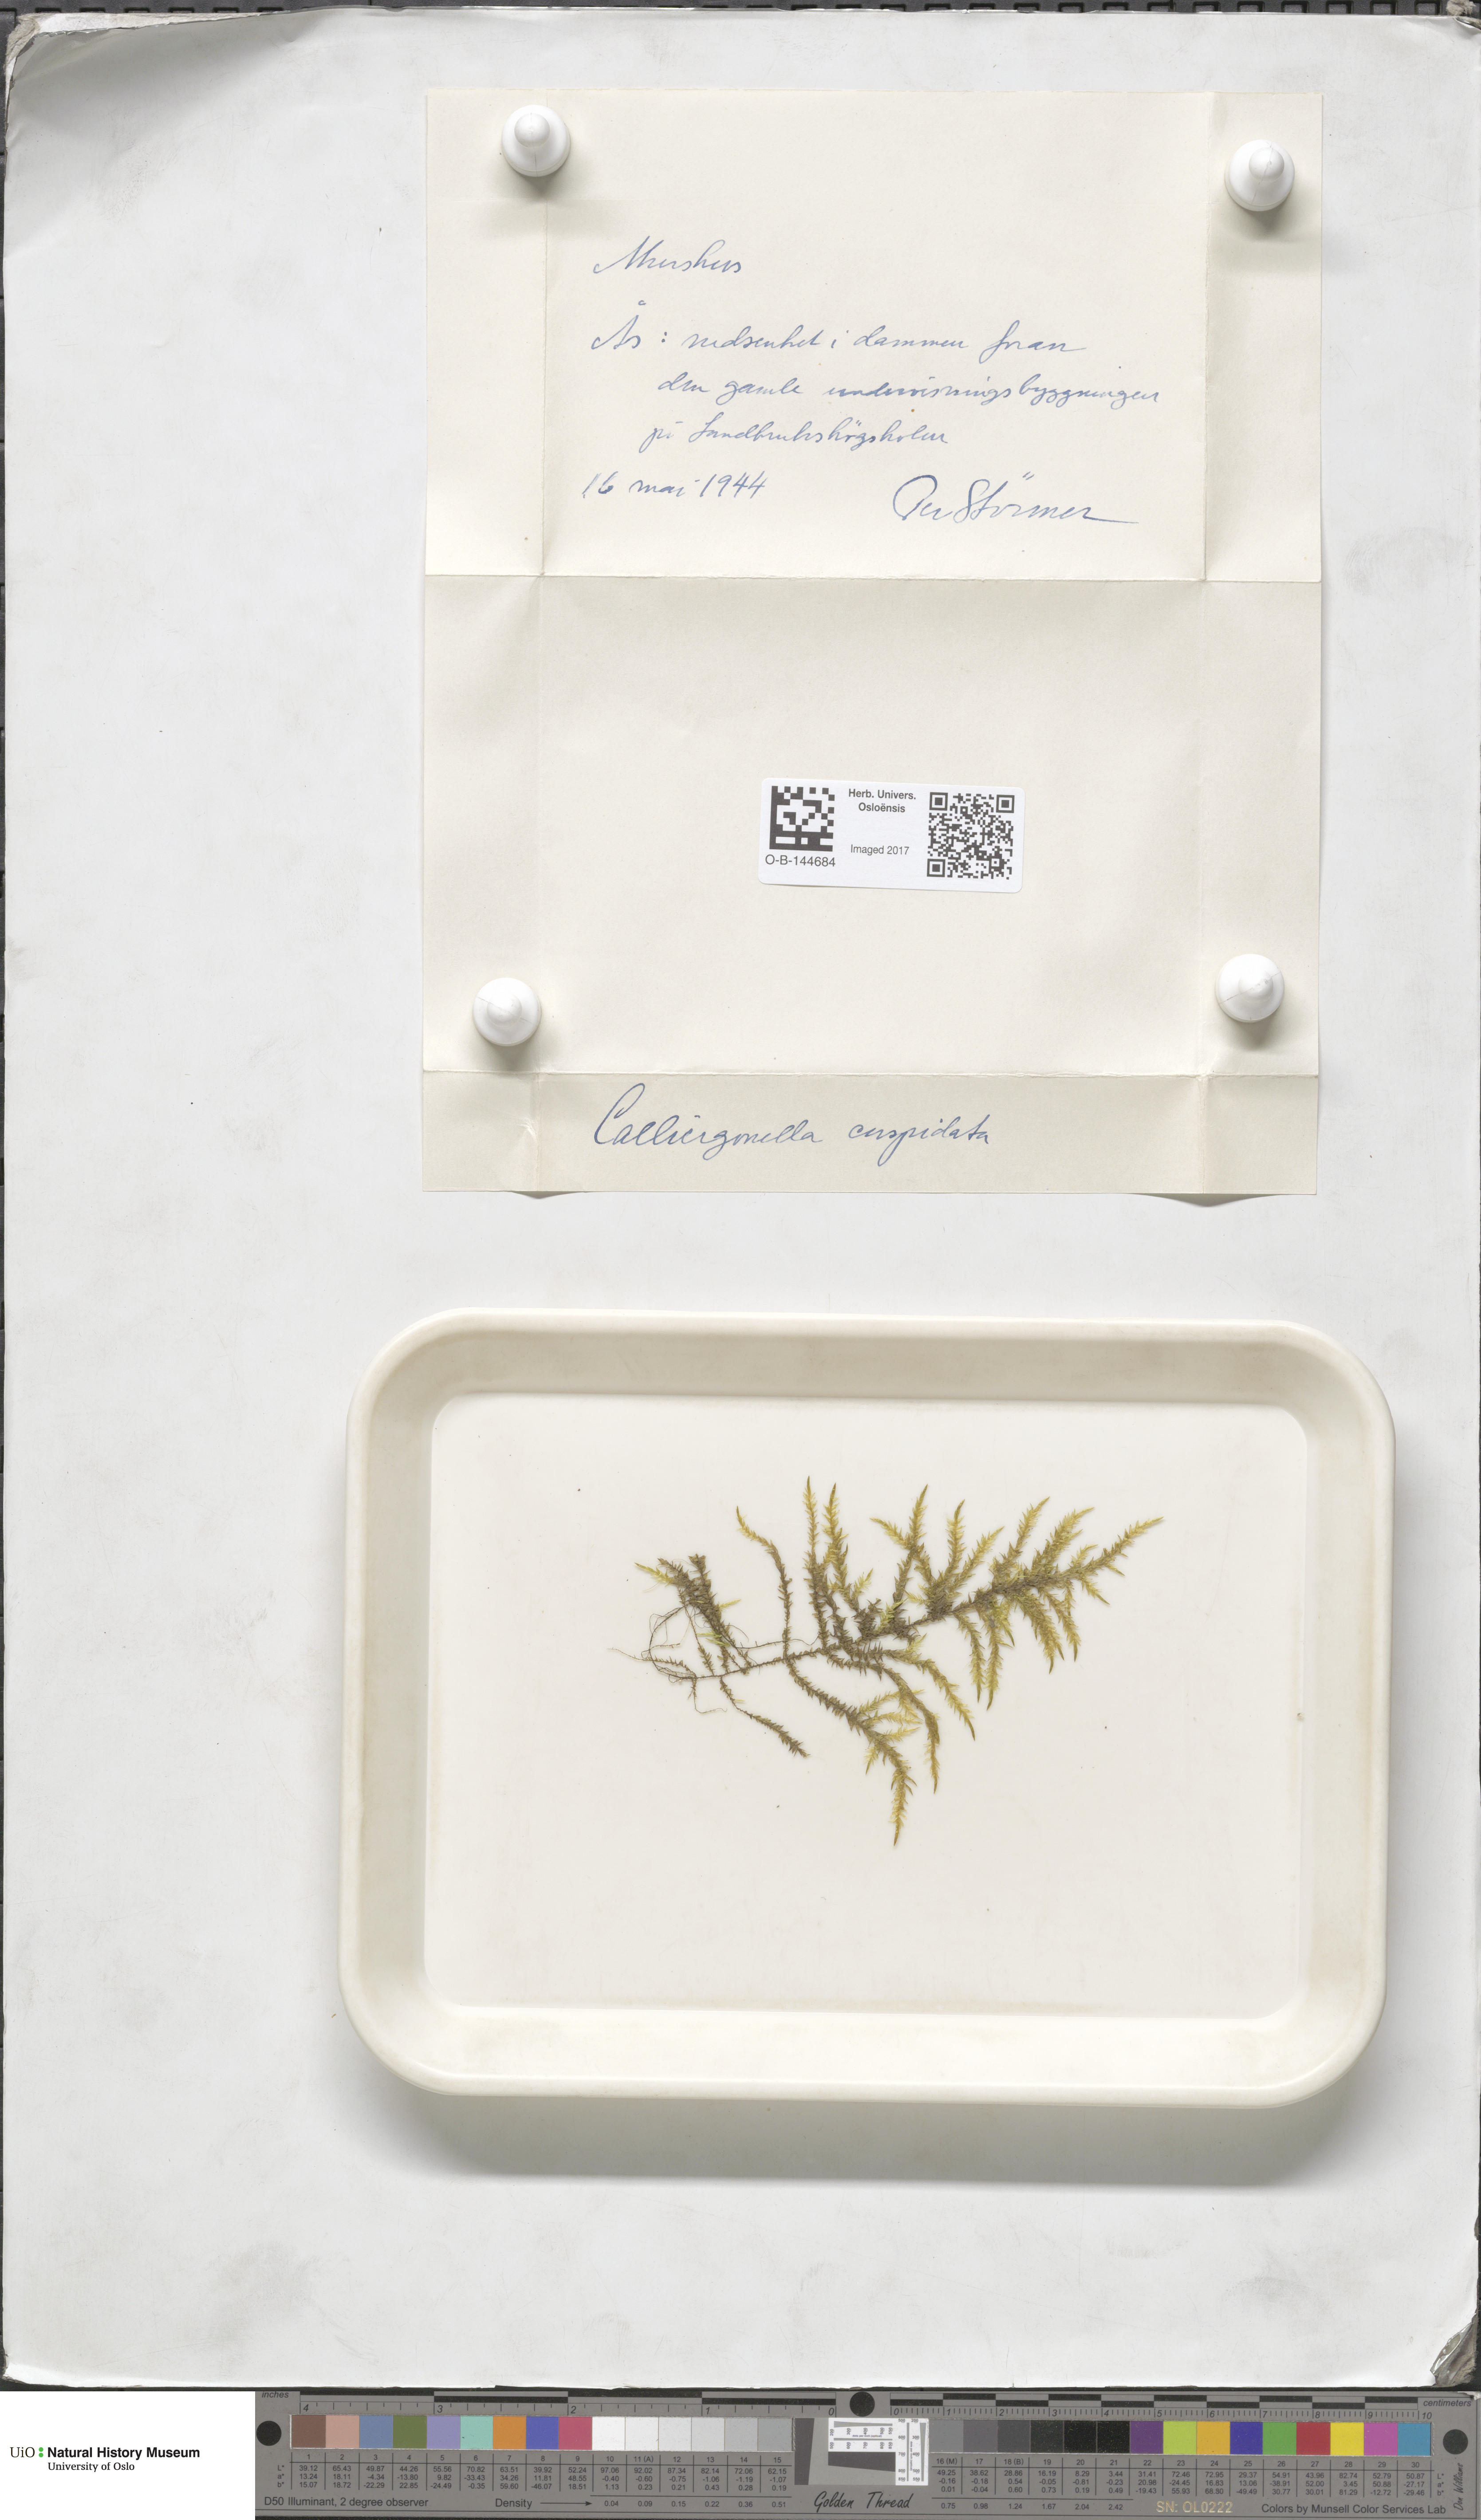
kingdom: Plantae
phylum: Bryophyta
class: Bryopsida
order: Hypnales
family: Pylaisiaceae
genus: Calliergonella
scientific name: Calliergonella cuspidata
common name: Common large wetland moss
